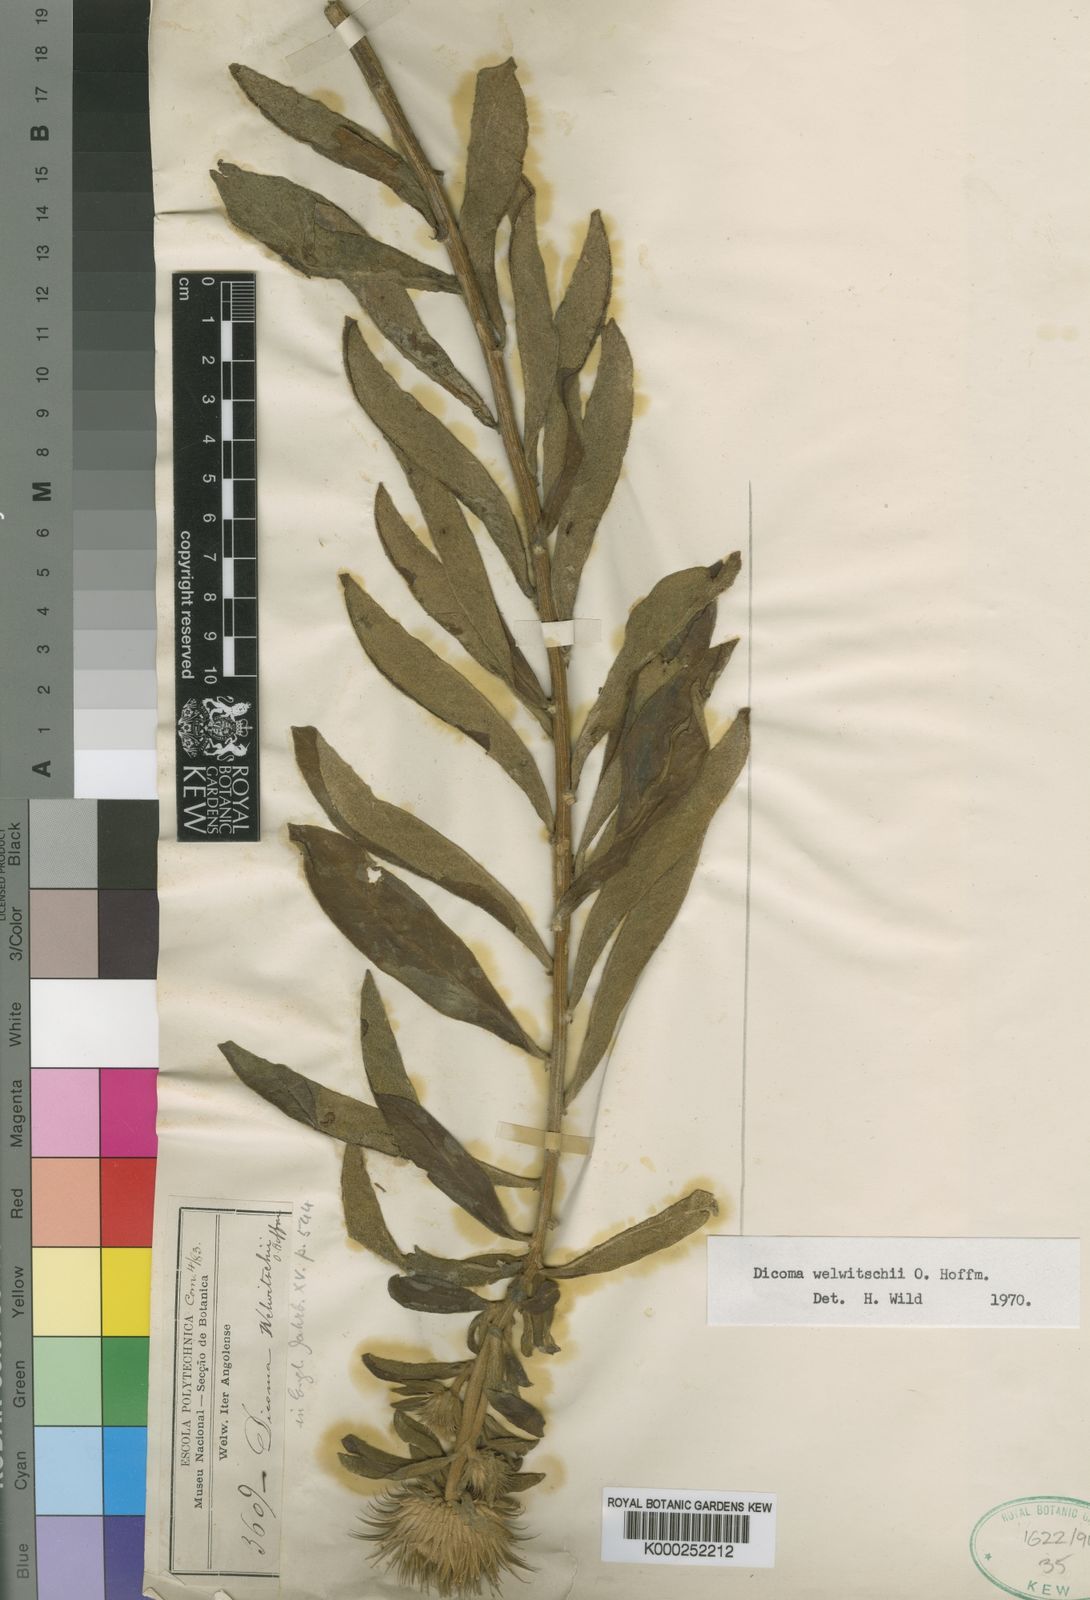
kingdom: Plantae
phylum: Tracheophyta
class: Magnoliopsida
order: Asterales
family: Asteraceae
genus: Dicomopsis
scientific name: Dicomopsis welwitschii
